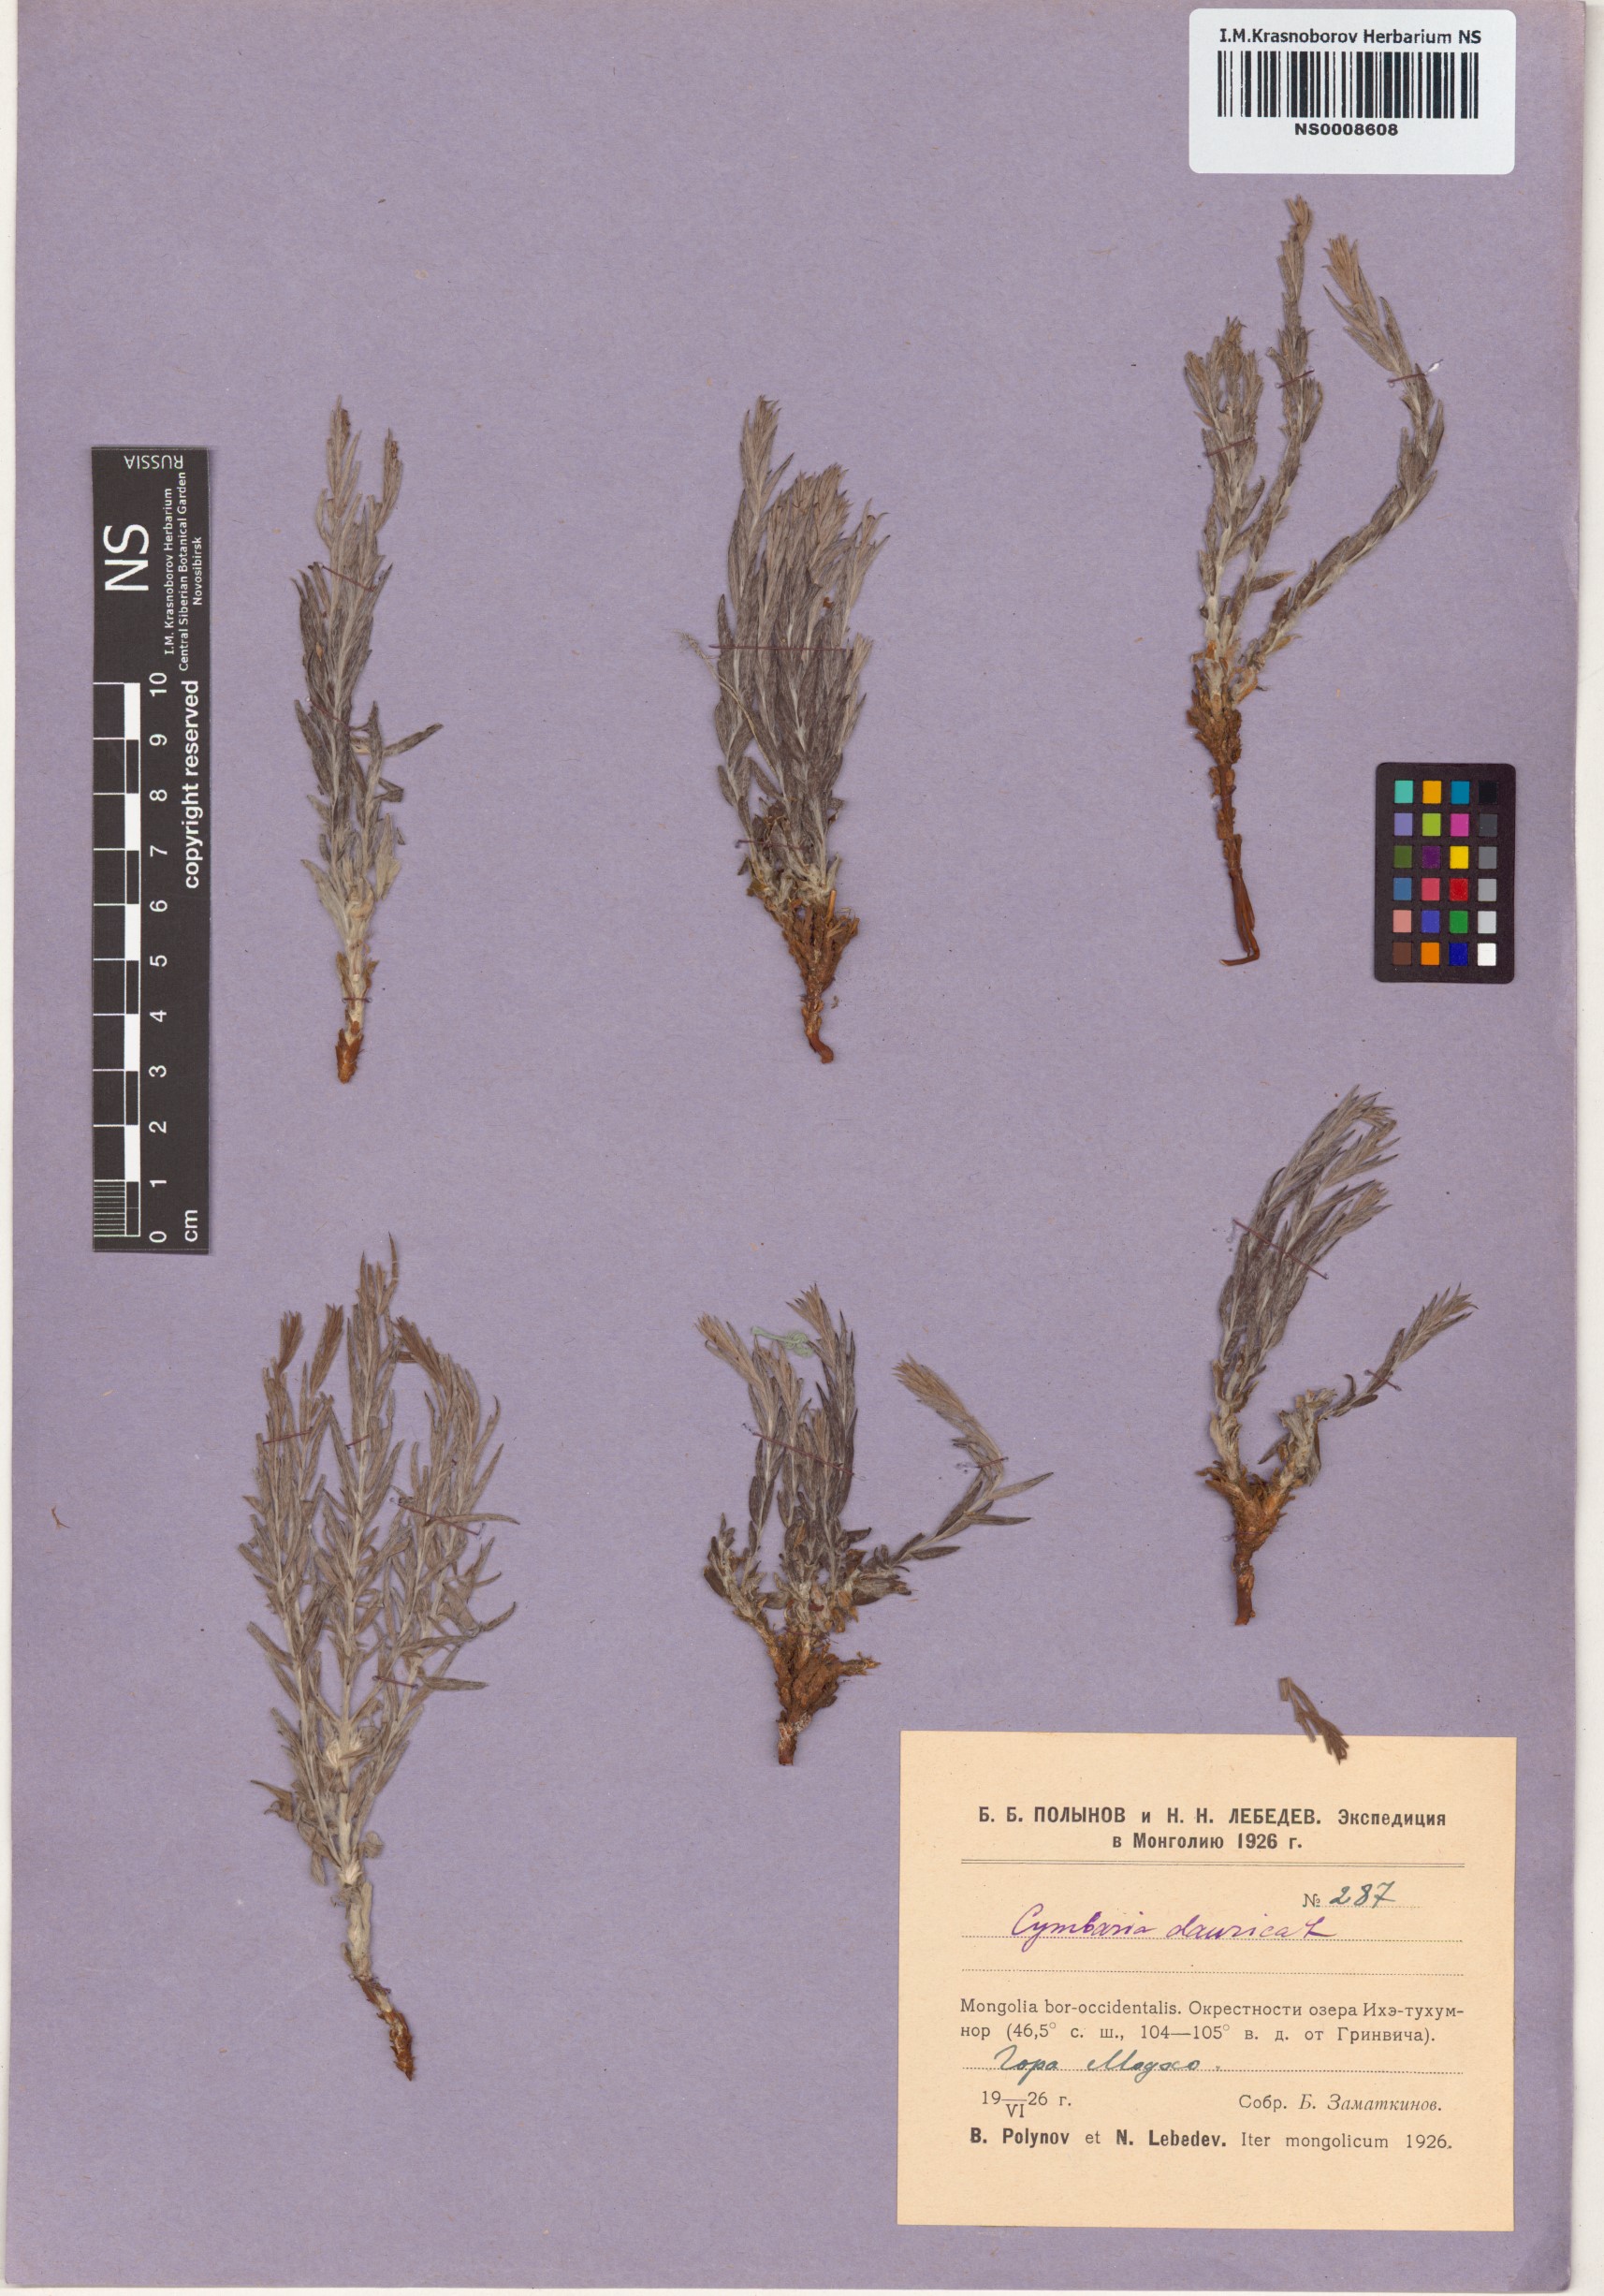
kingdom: Plantae
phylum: Tracheophyta
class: Magnoliopsida
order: Lamiales
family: Orobanchaceae
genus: Cymbaria
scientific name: Cymbaria daurica
